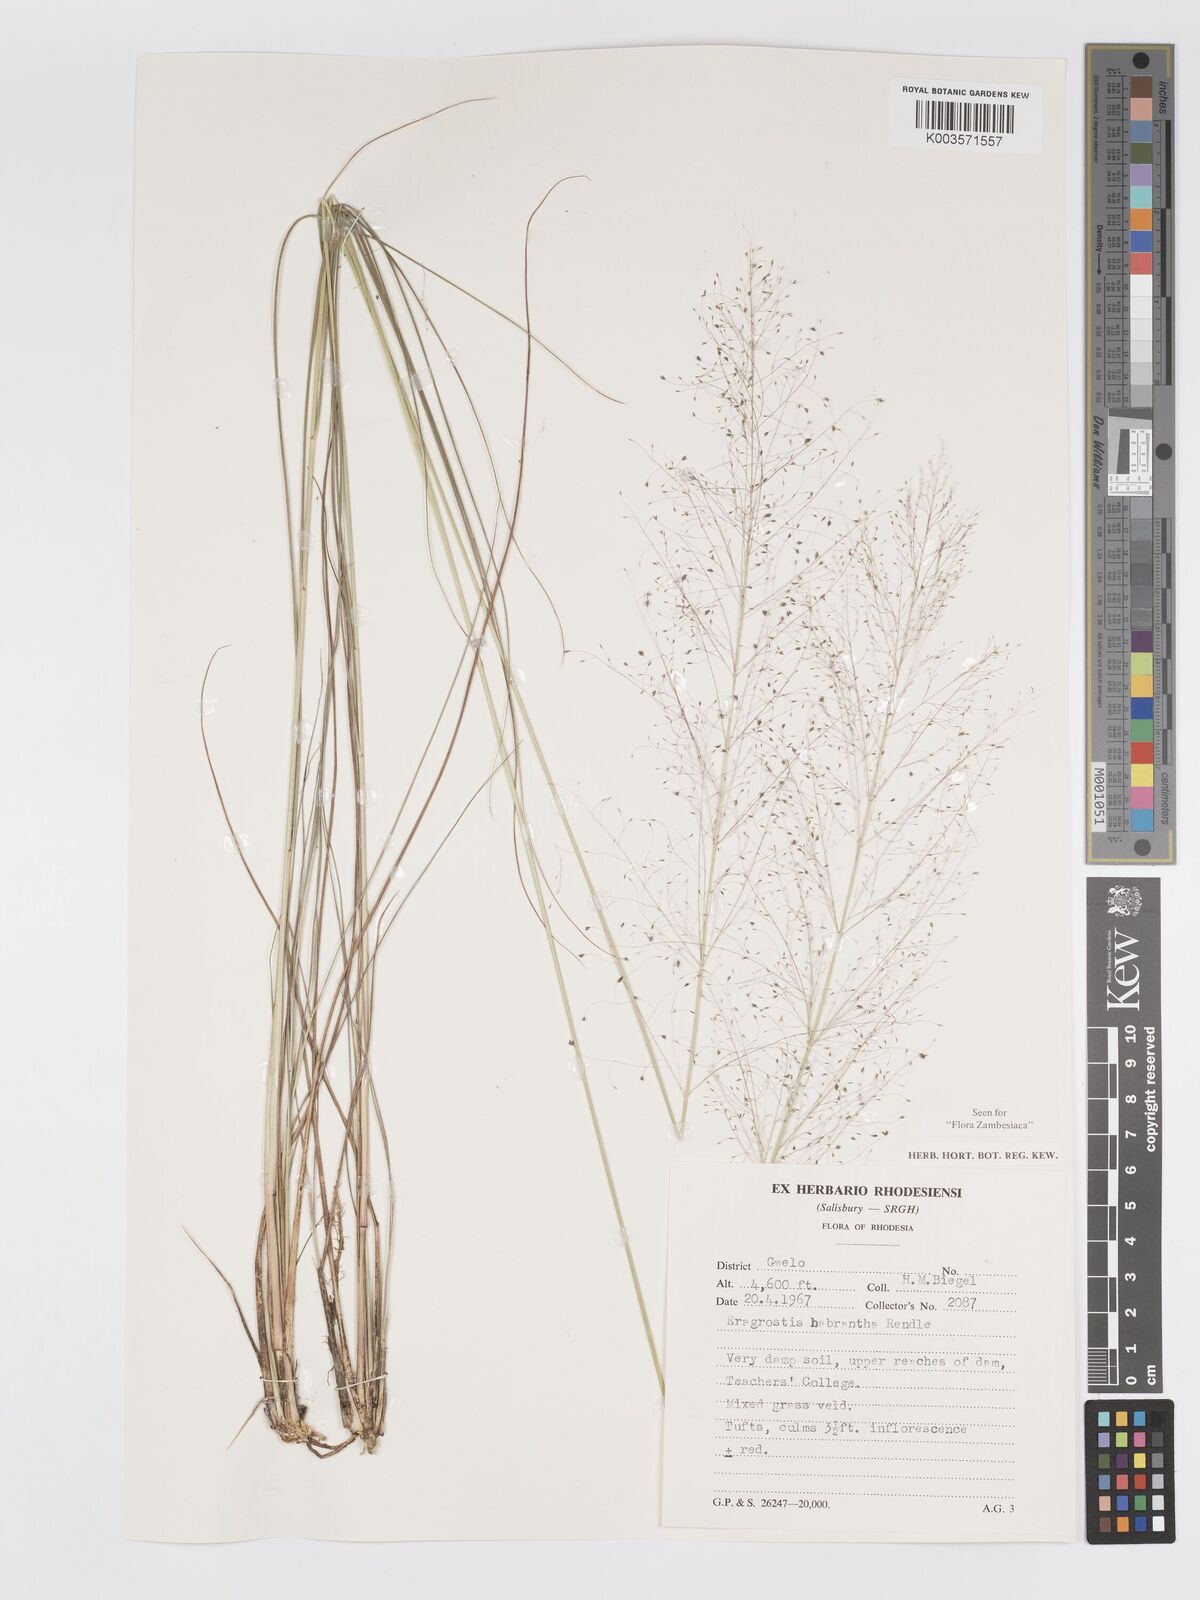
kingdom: Plantae
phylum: Tracheophyta
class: Liliopsida
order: Poales
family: Poaceae
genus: Eragrostis
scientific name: Eragrostis habrantha
